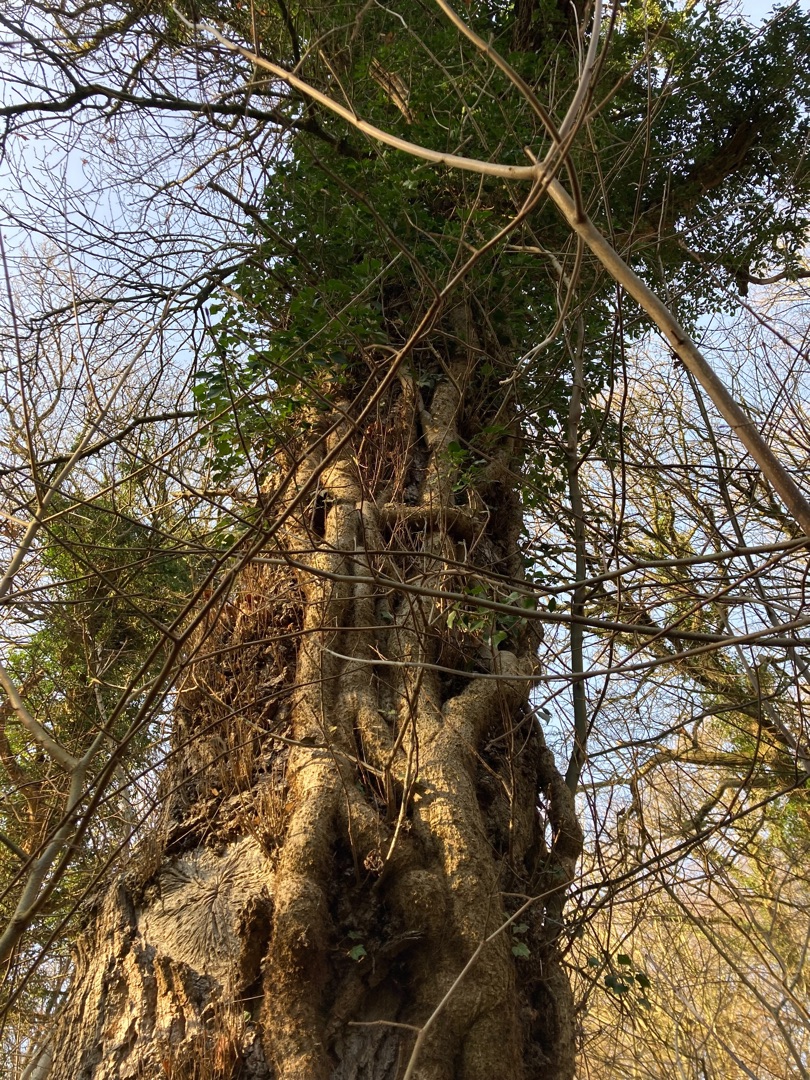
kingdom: Plantae
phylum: Tracheophyta
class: Magnoliopsida
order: Apiales
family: Araliaceae
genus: Hedera
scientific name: Hedera helix
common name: Vedbend
